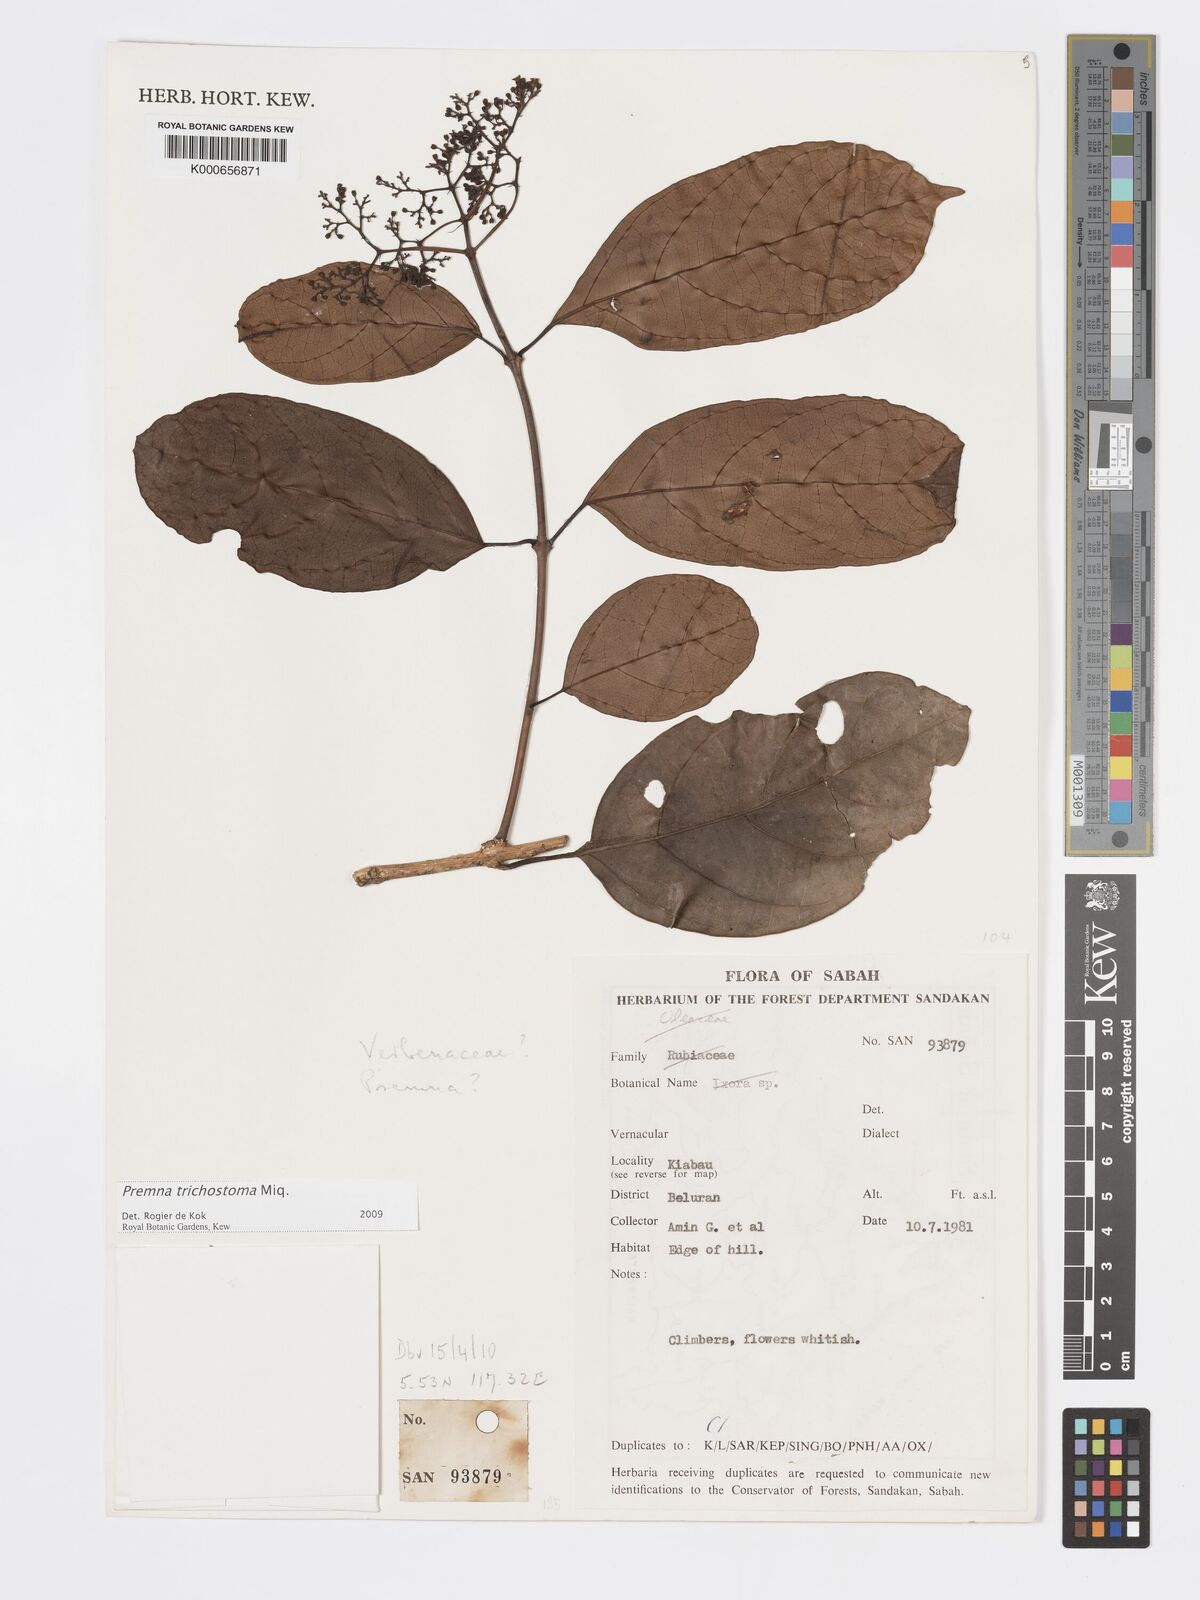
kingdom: Plantae
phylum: Tracheophyta
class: Magnoliopsida
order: Lamiales
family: Lamiaceae
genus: Premna
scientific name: Premna trichostoma
